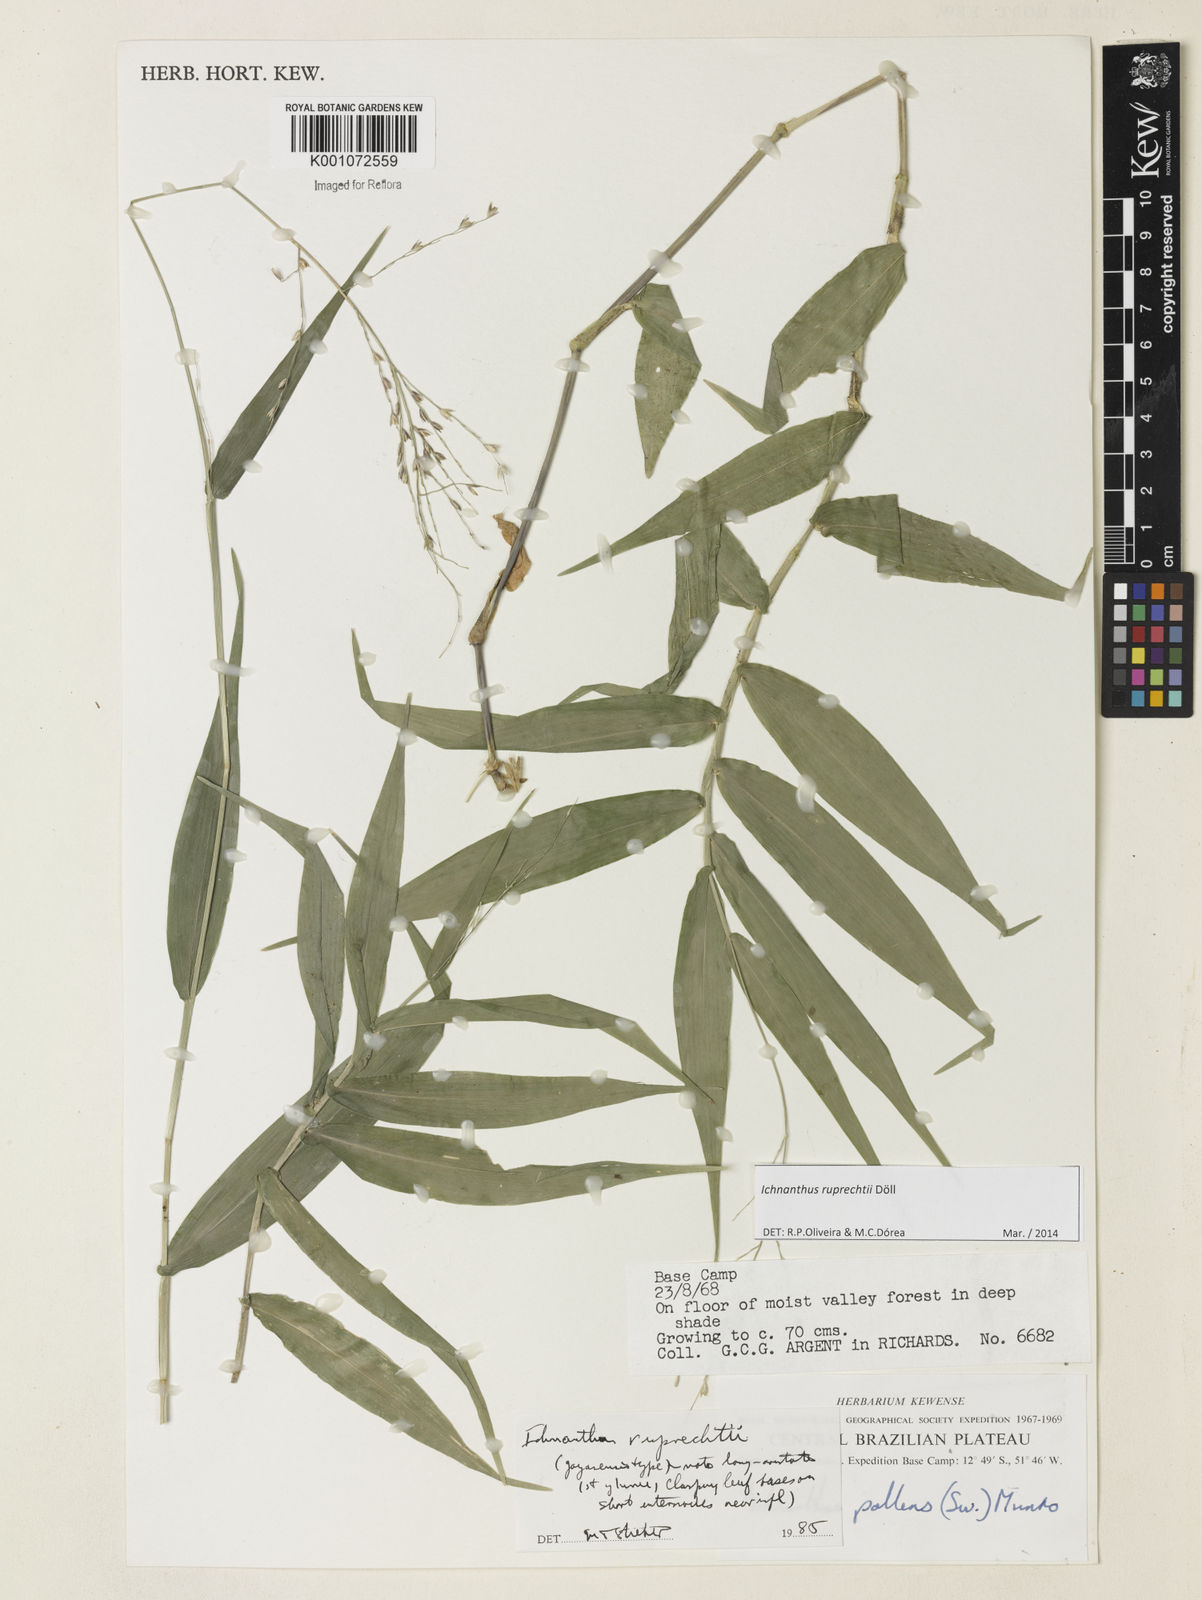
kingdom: Plantae
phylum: Tracheophyta
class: Liliopsida
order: Poales
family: Poaceae
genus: Ichnanthus
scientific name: Ichnanthus
